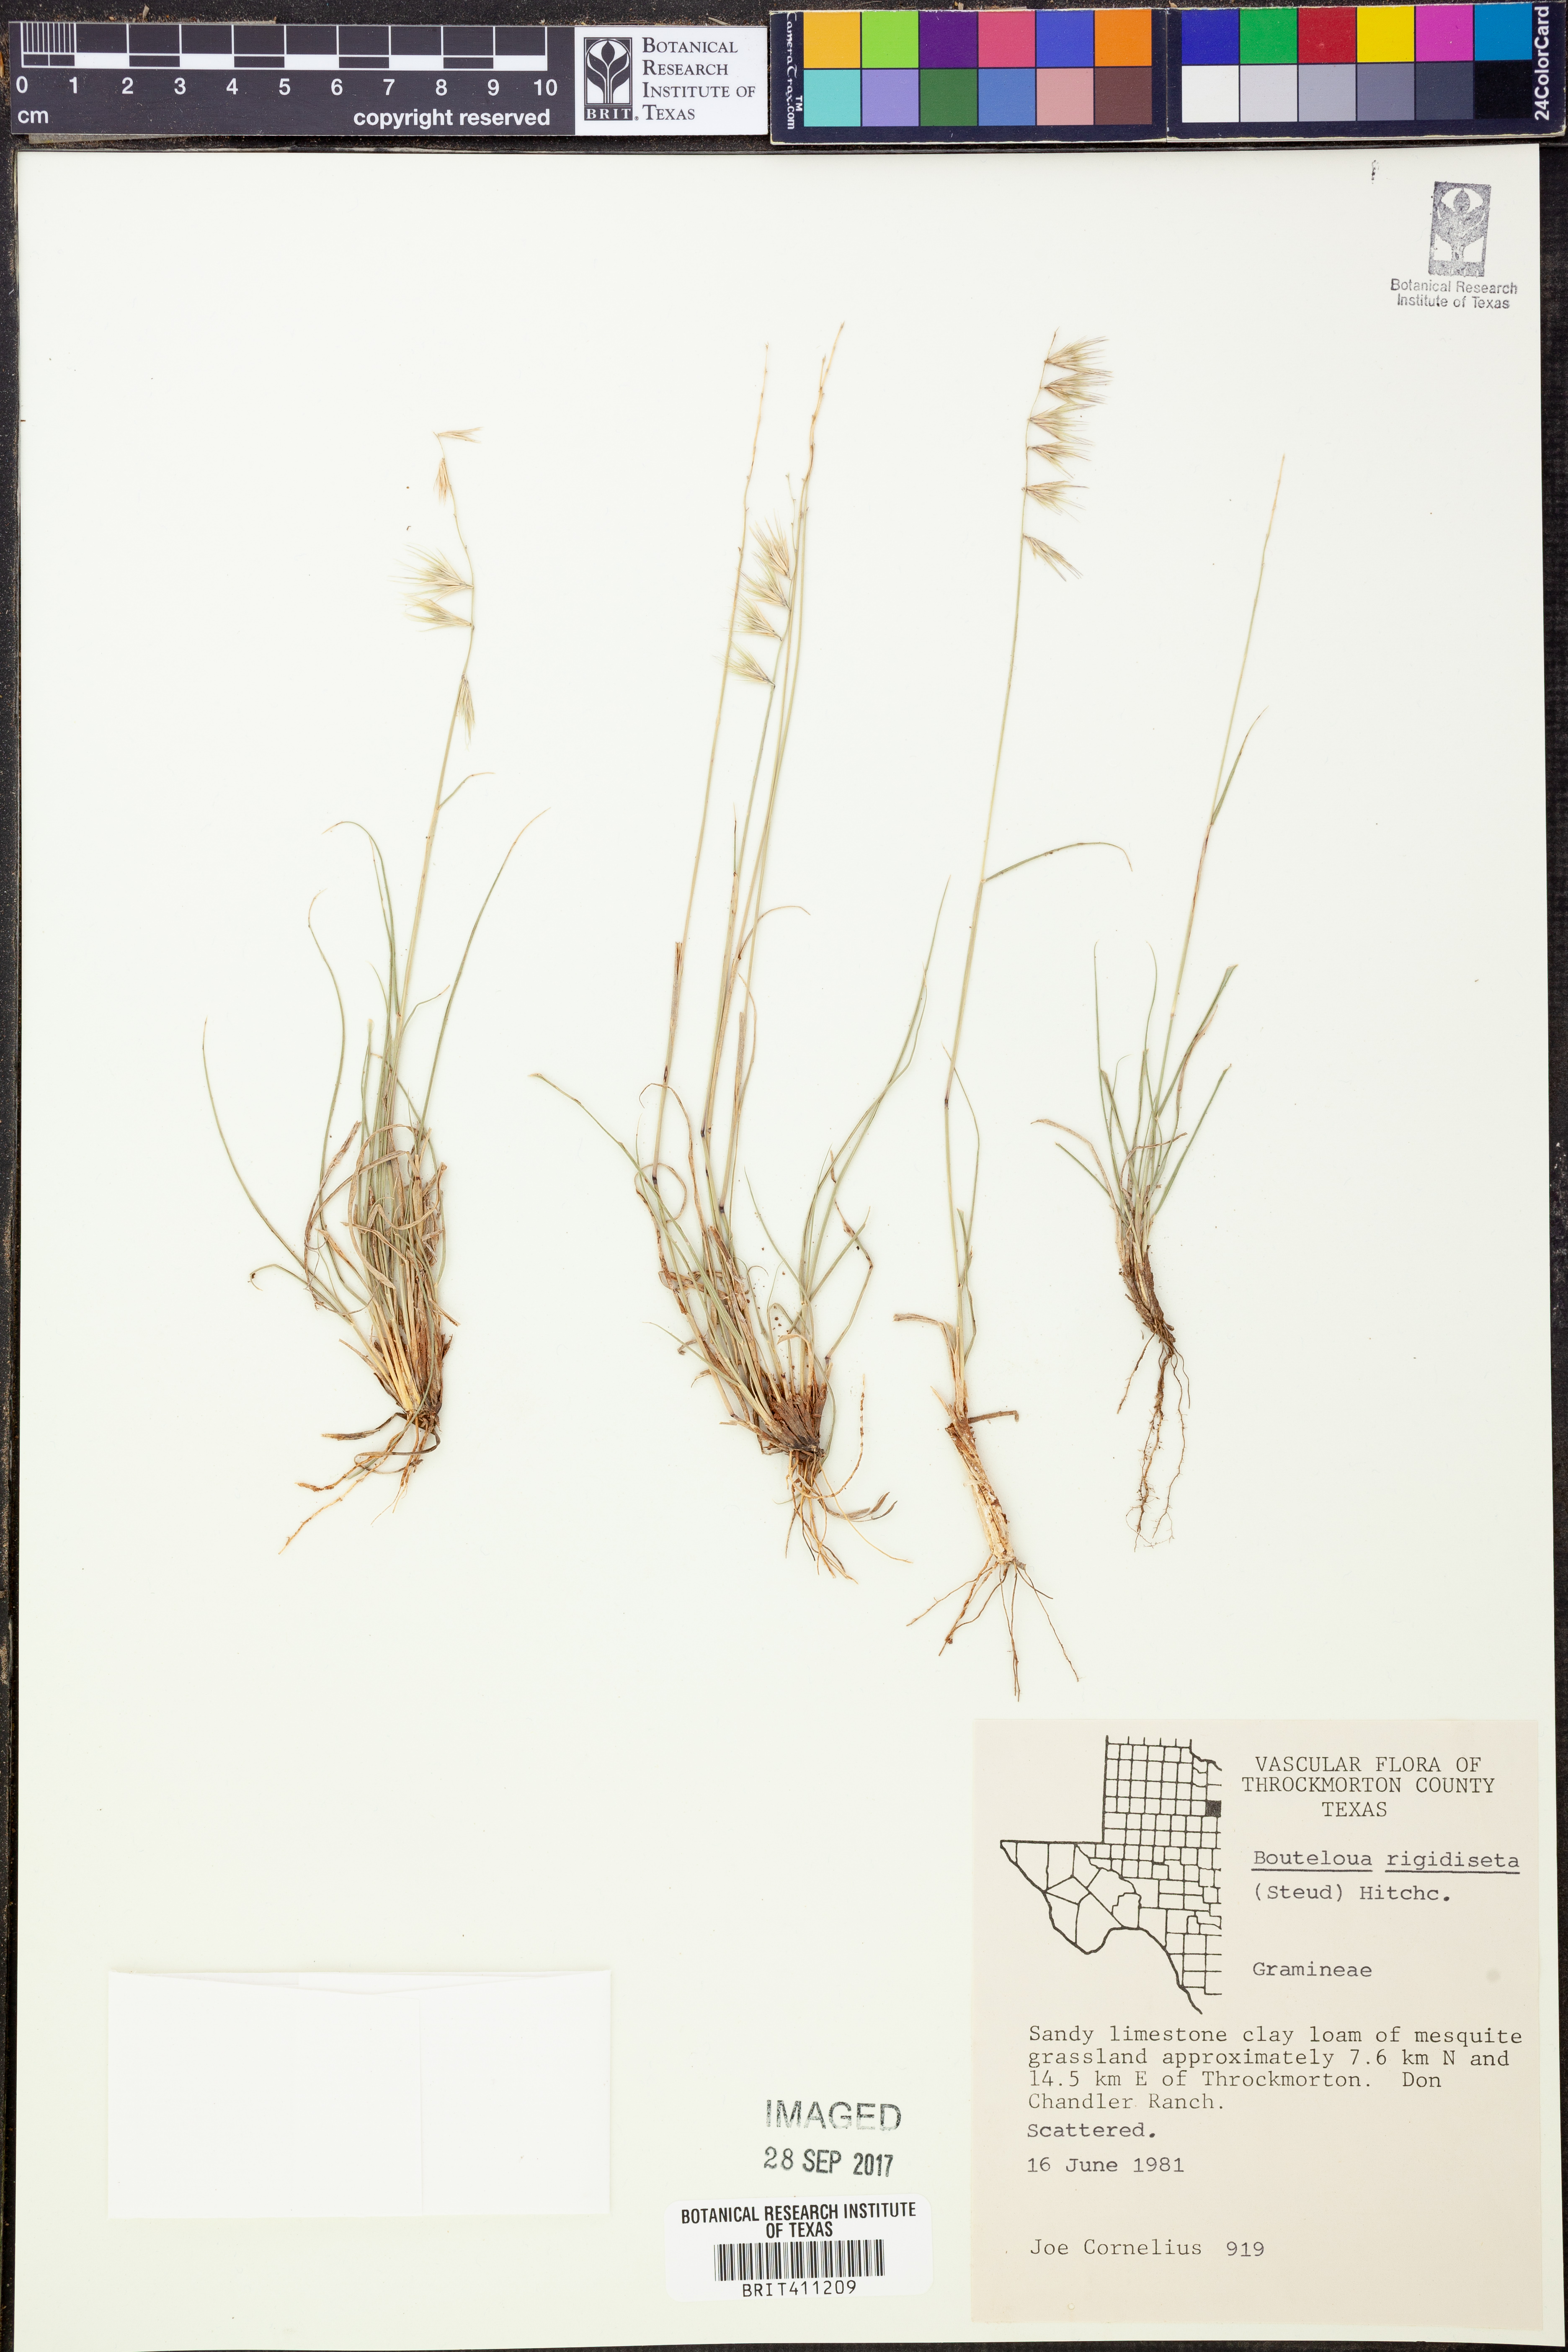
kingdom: Plantae
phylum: Tracheophyta
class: Liliopsida
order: Poales
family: Poaceae
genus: Bouteloua
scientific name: Bouteloua rigidiseta
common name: Texas grama
